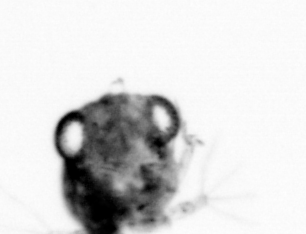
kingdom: Animalia
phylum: Arthropoda
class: Copepoda
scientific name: Copepoda
